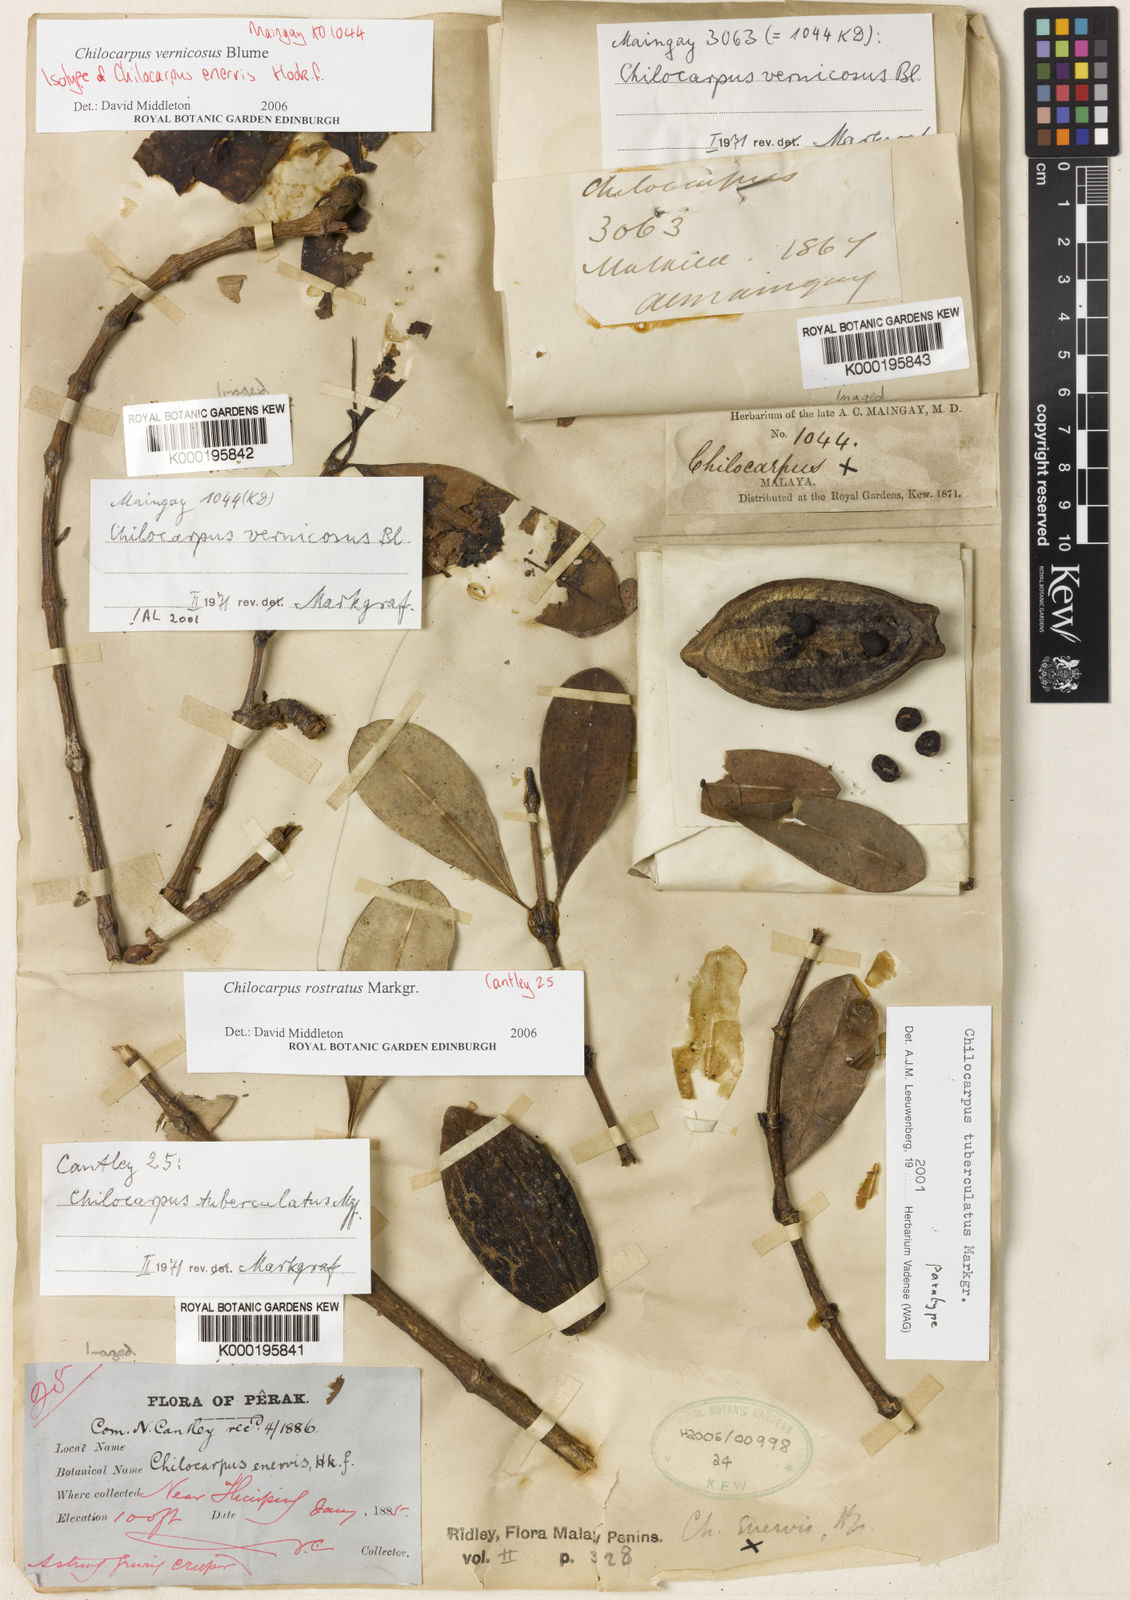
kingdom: Plantae
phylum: Tracheophyta
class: Magnoliopsida
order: Gentianales
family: Apocynaceae
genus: Chilocarpus
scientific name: Chilocarpus vernicosus
